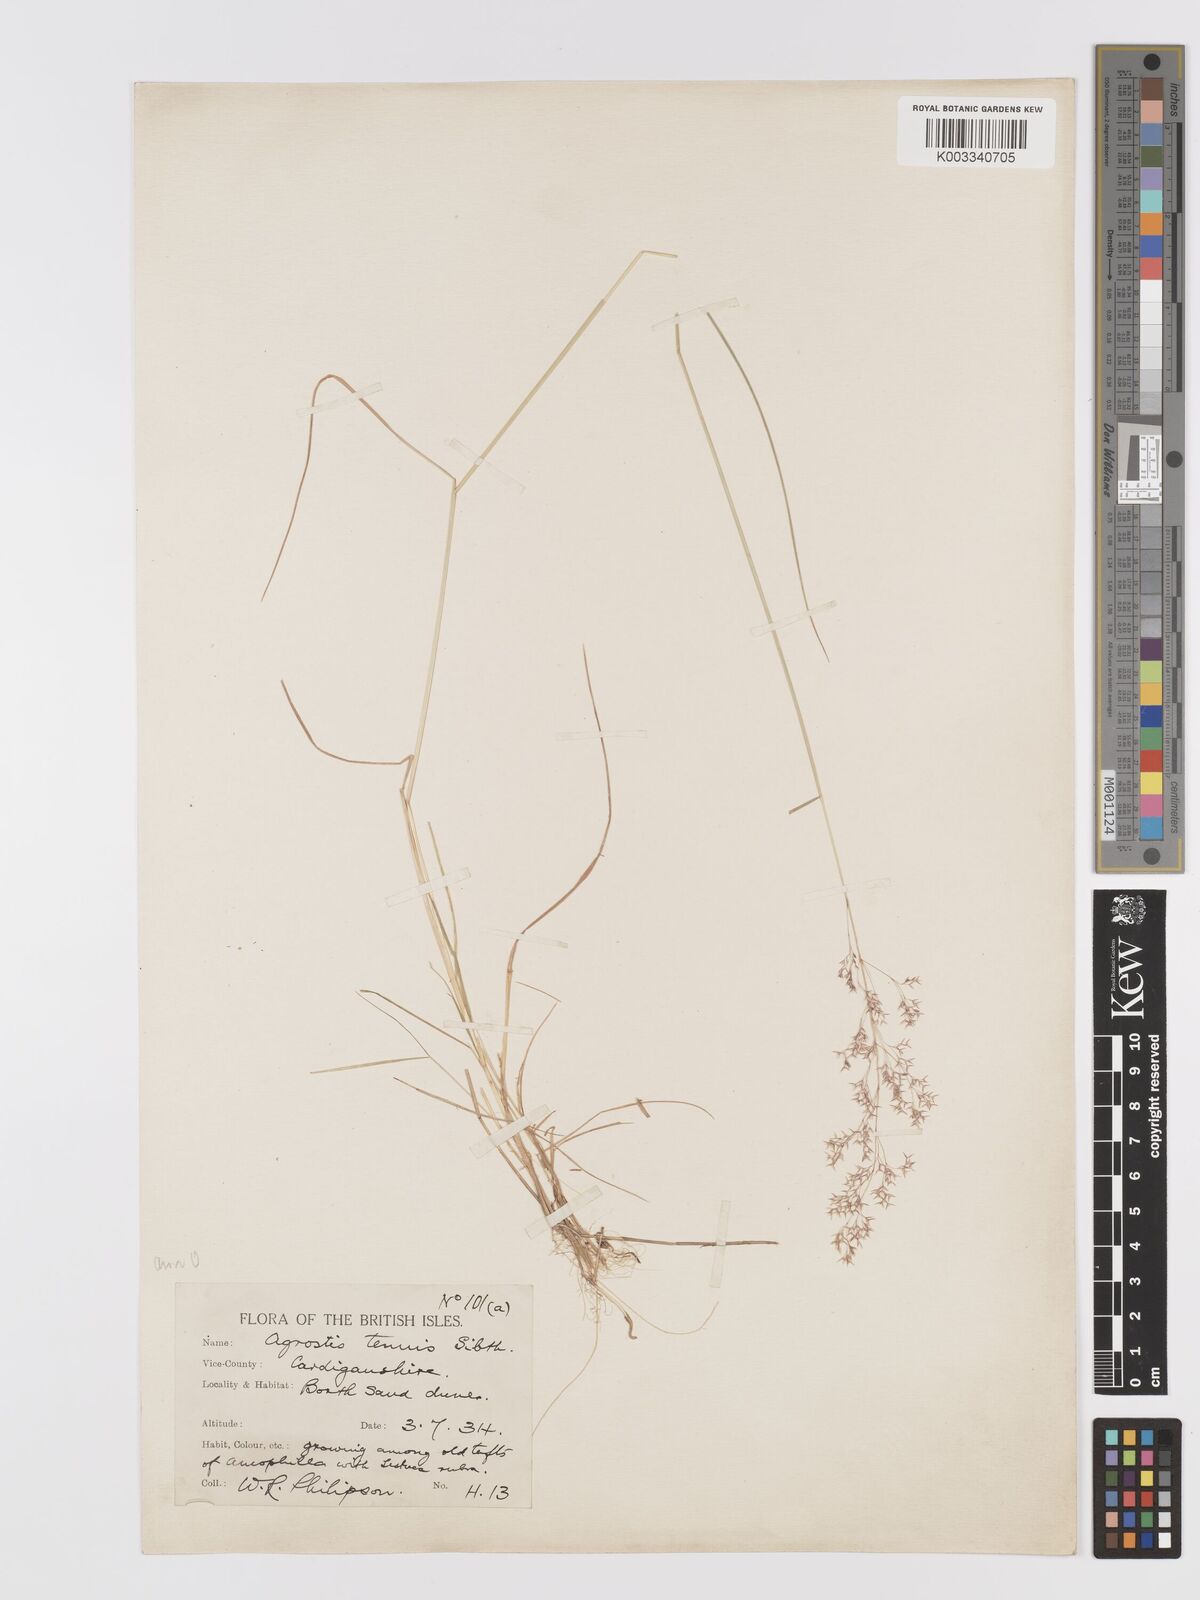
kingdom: Plantae
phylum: Tracheophyta
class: Liliopsida
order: Poales
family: Poaceae
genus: Agrostis
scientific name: Agrostis capillaris
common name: Colonial bentgrass
